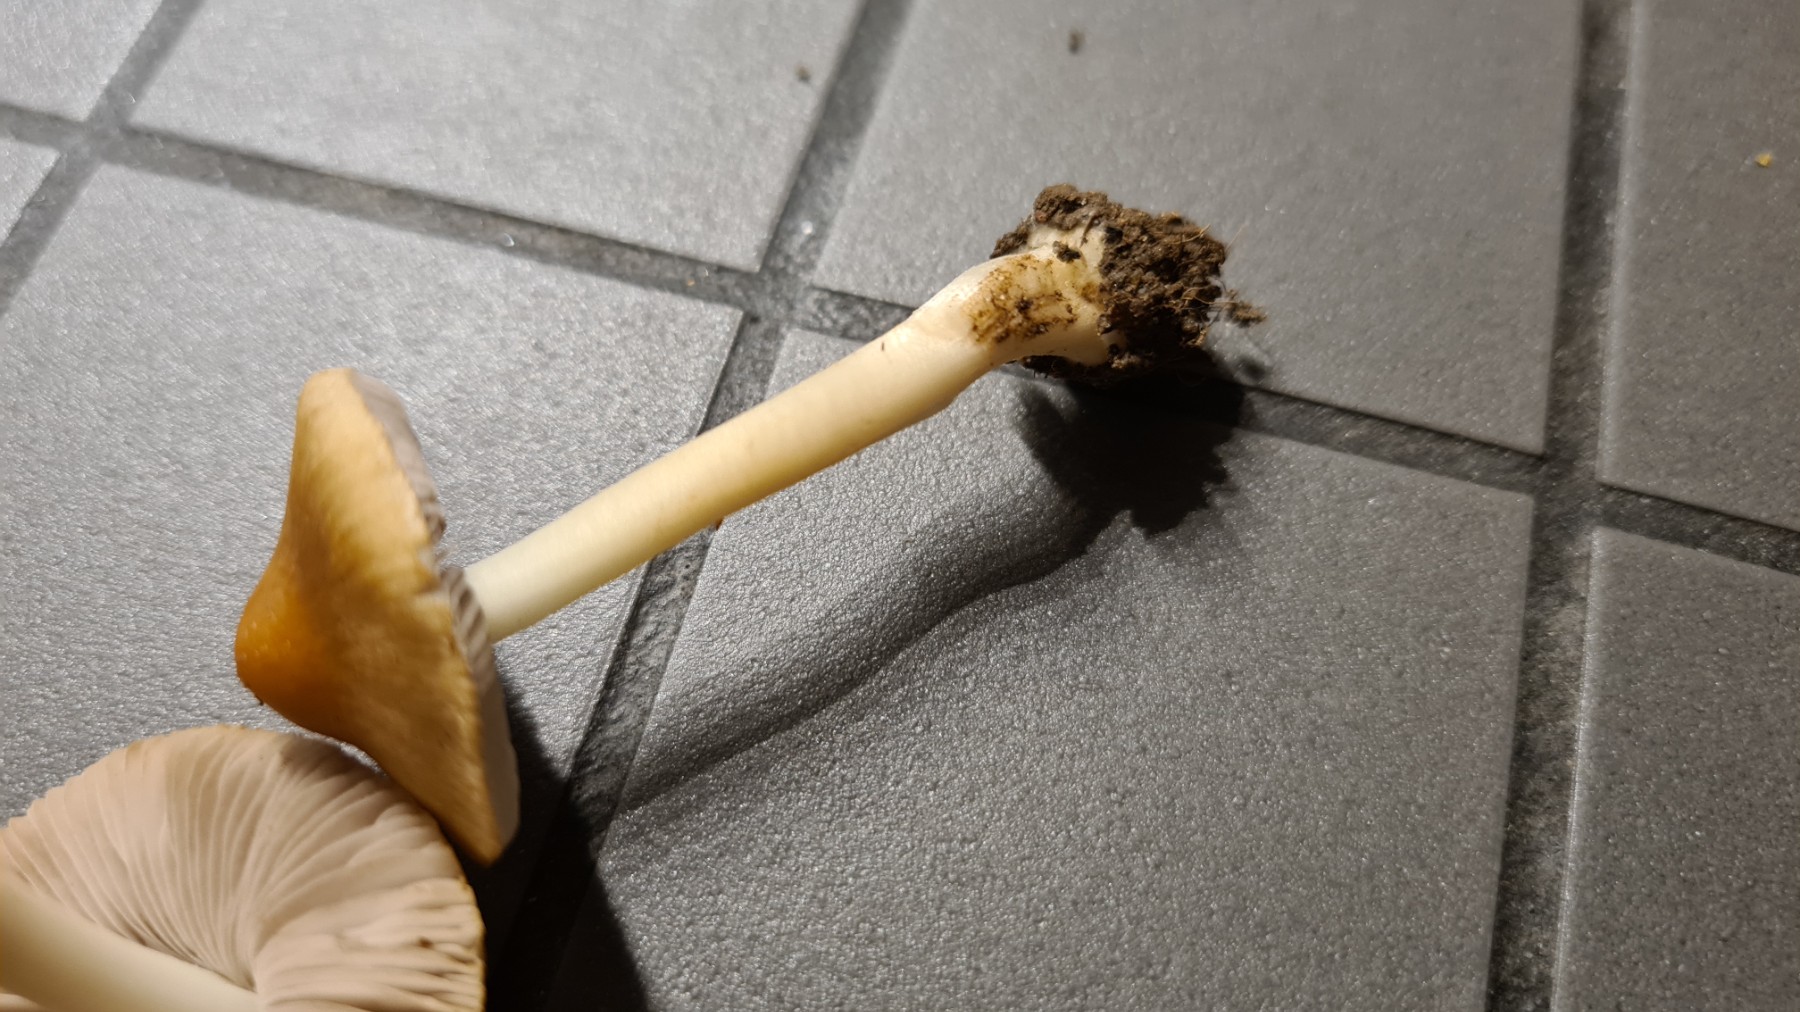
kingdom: Fungi
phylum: Basidiomycota
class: Agaricomycetes
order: Agaricales
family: Inocybaceae
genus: Inocybe
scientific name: Inocybe
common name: trævlhat
